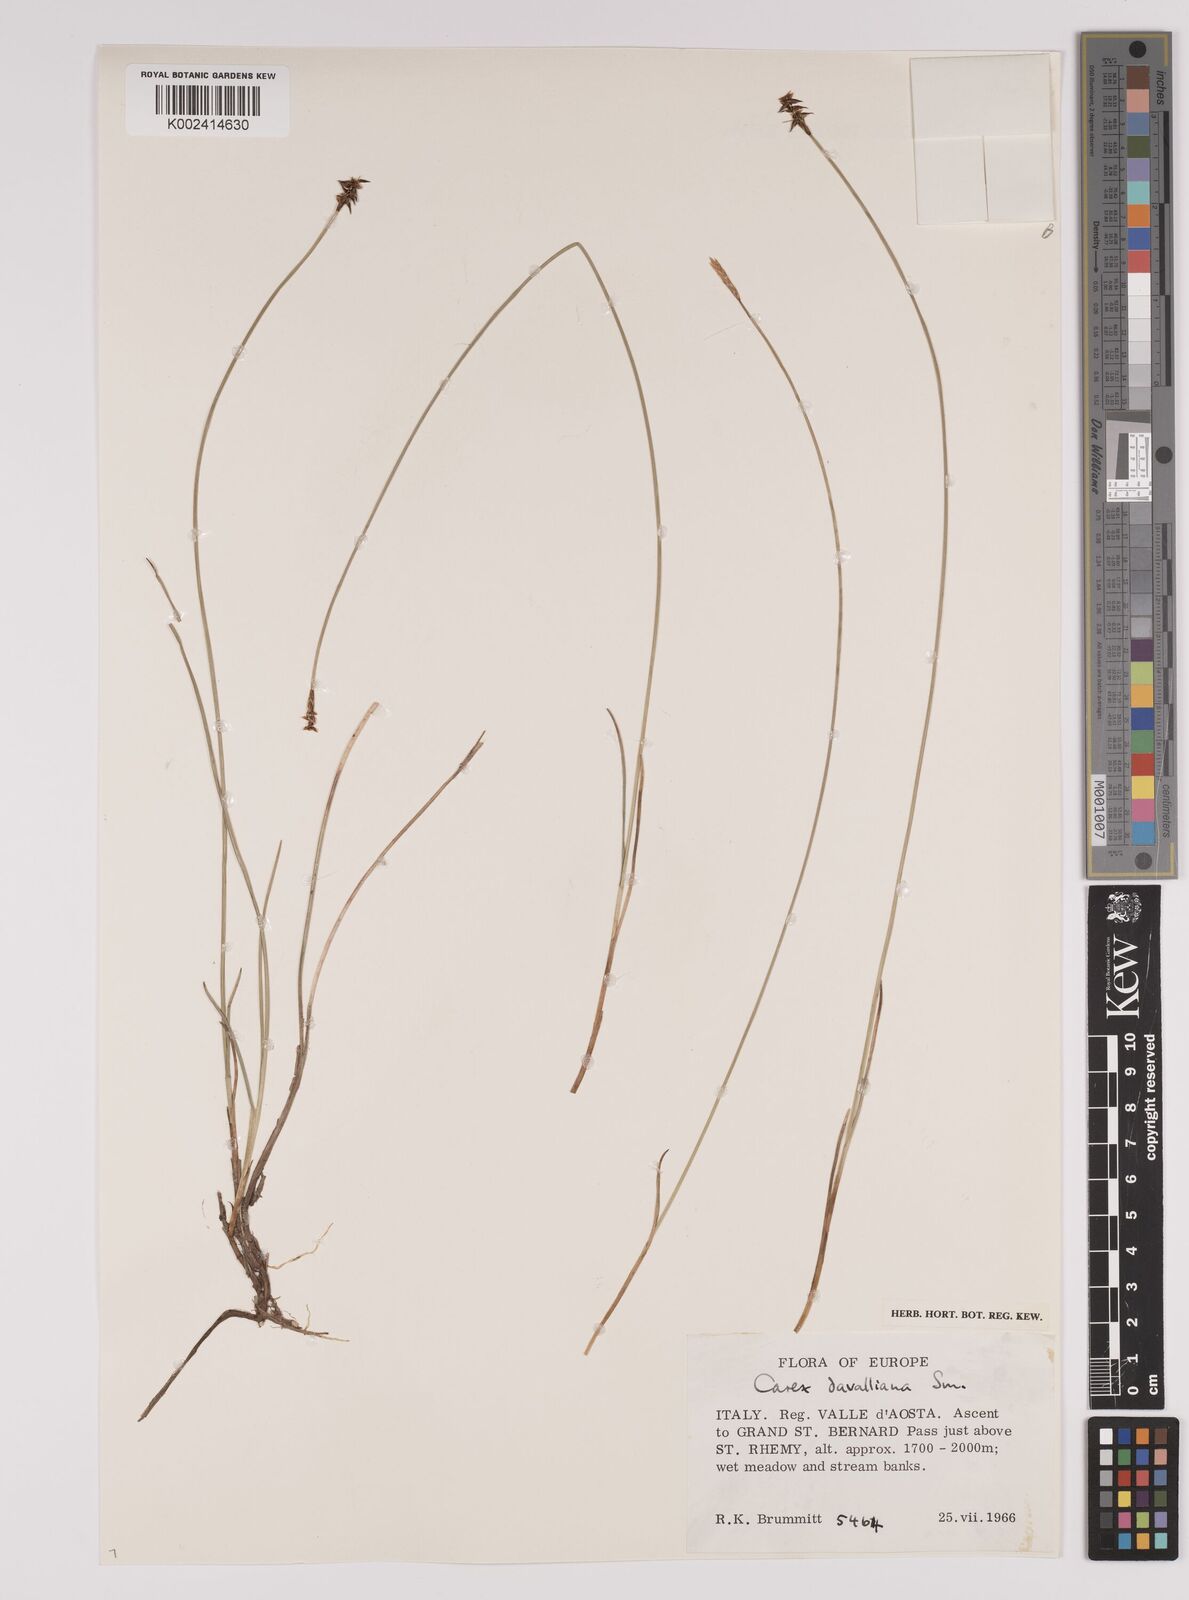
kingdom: Plantae
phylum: Tracheophyta
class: Liliopsida
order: Poales
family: Cyperaceae
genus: Carex
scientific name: Carex davalliana
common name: Davall's sedge
